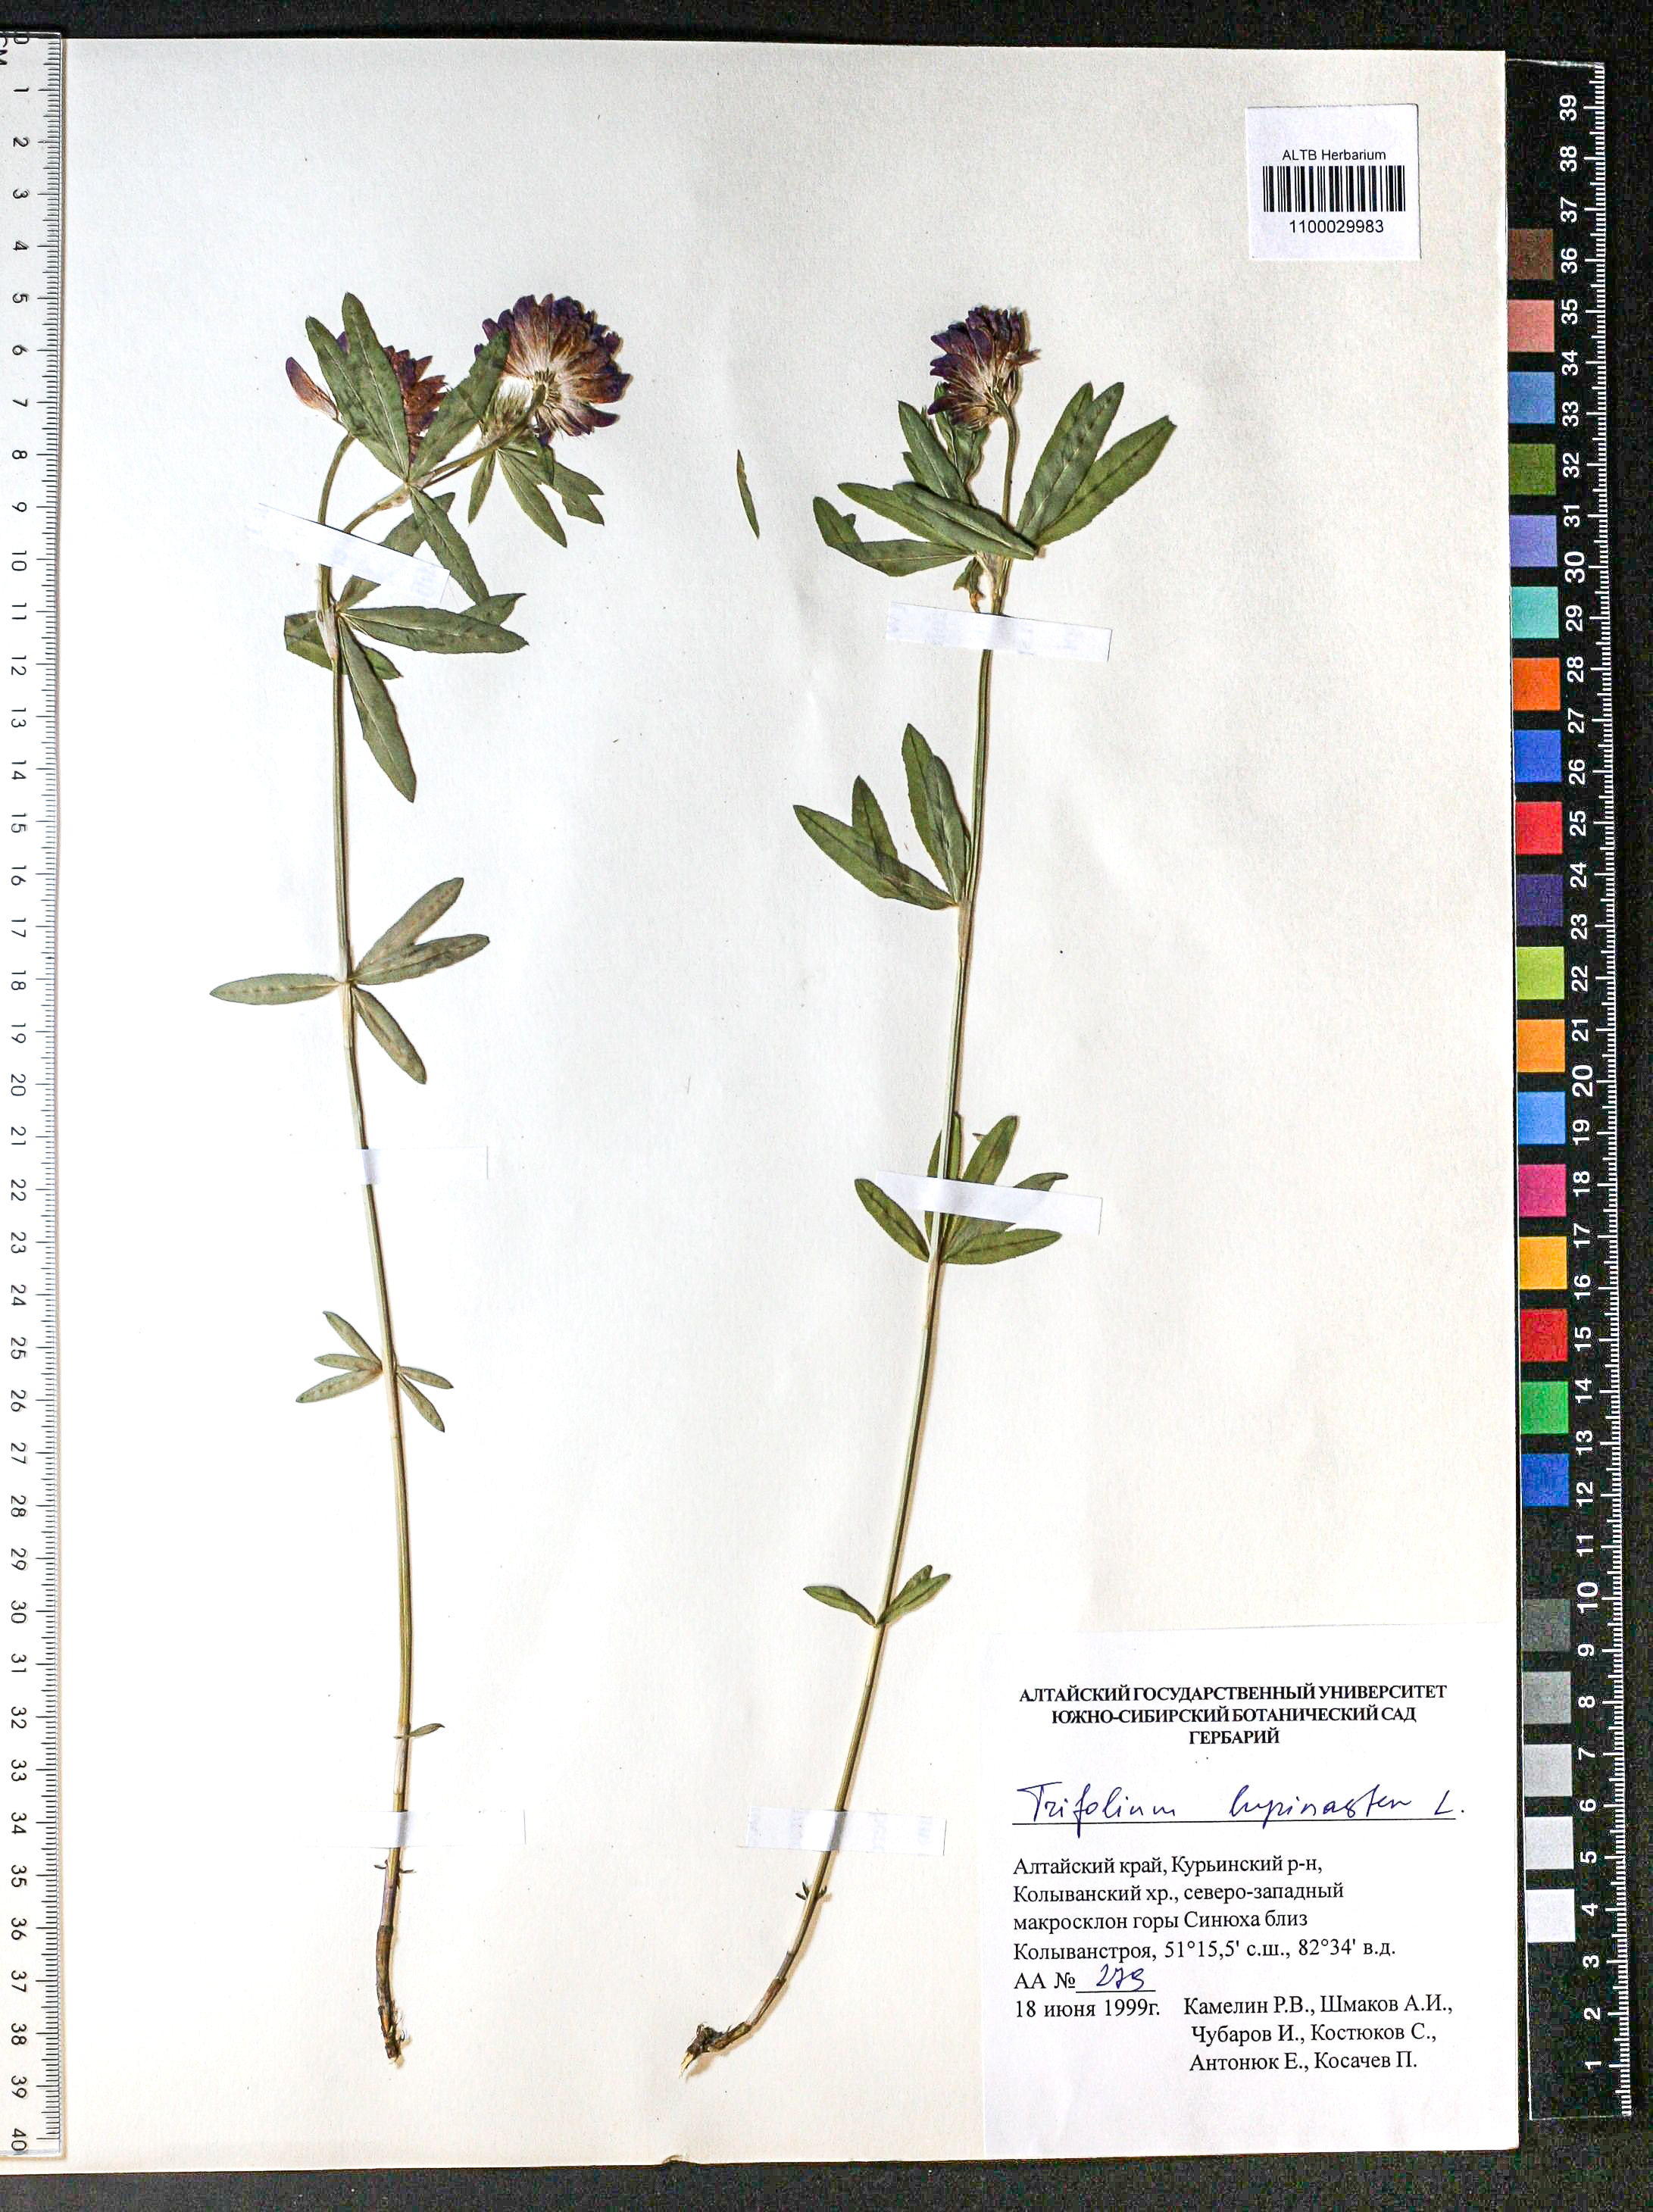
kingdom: Plantae
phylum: Tracheophyta
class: Magnoliopsida
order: Fabales
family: Fabaceae
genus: Trifolium
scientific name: Trifolium lupinaster
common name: Lupine clover
